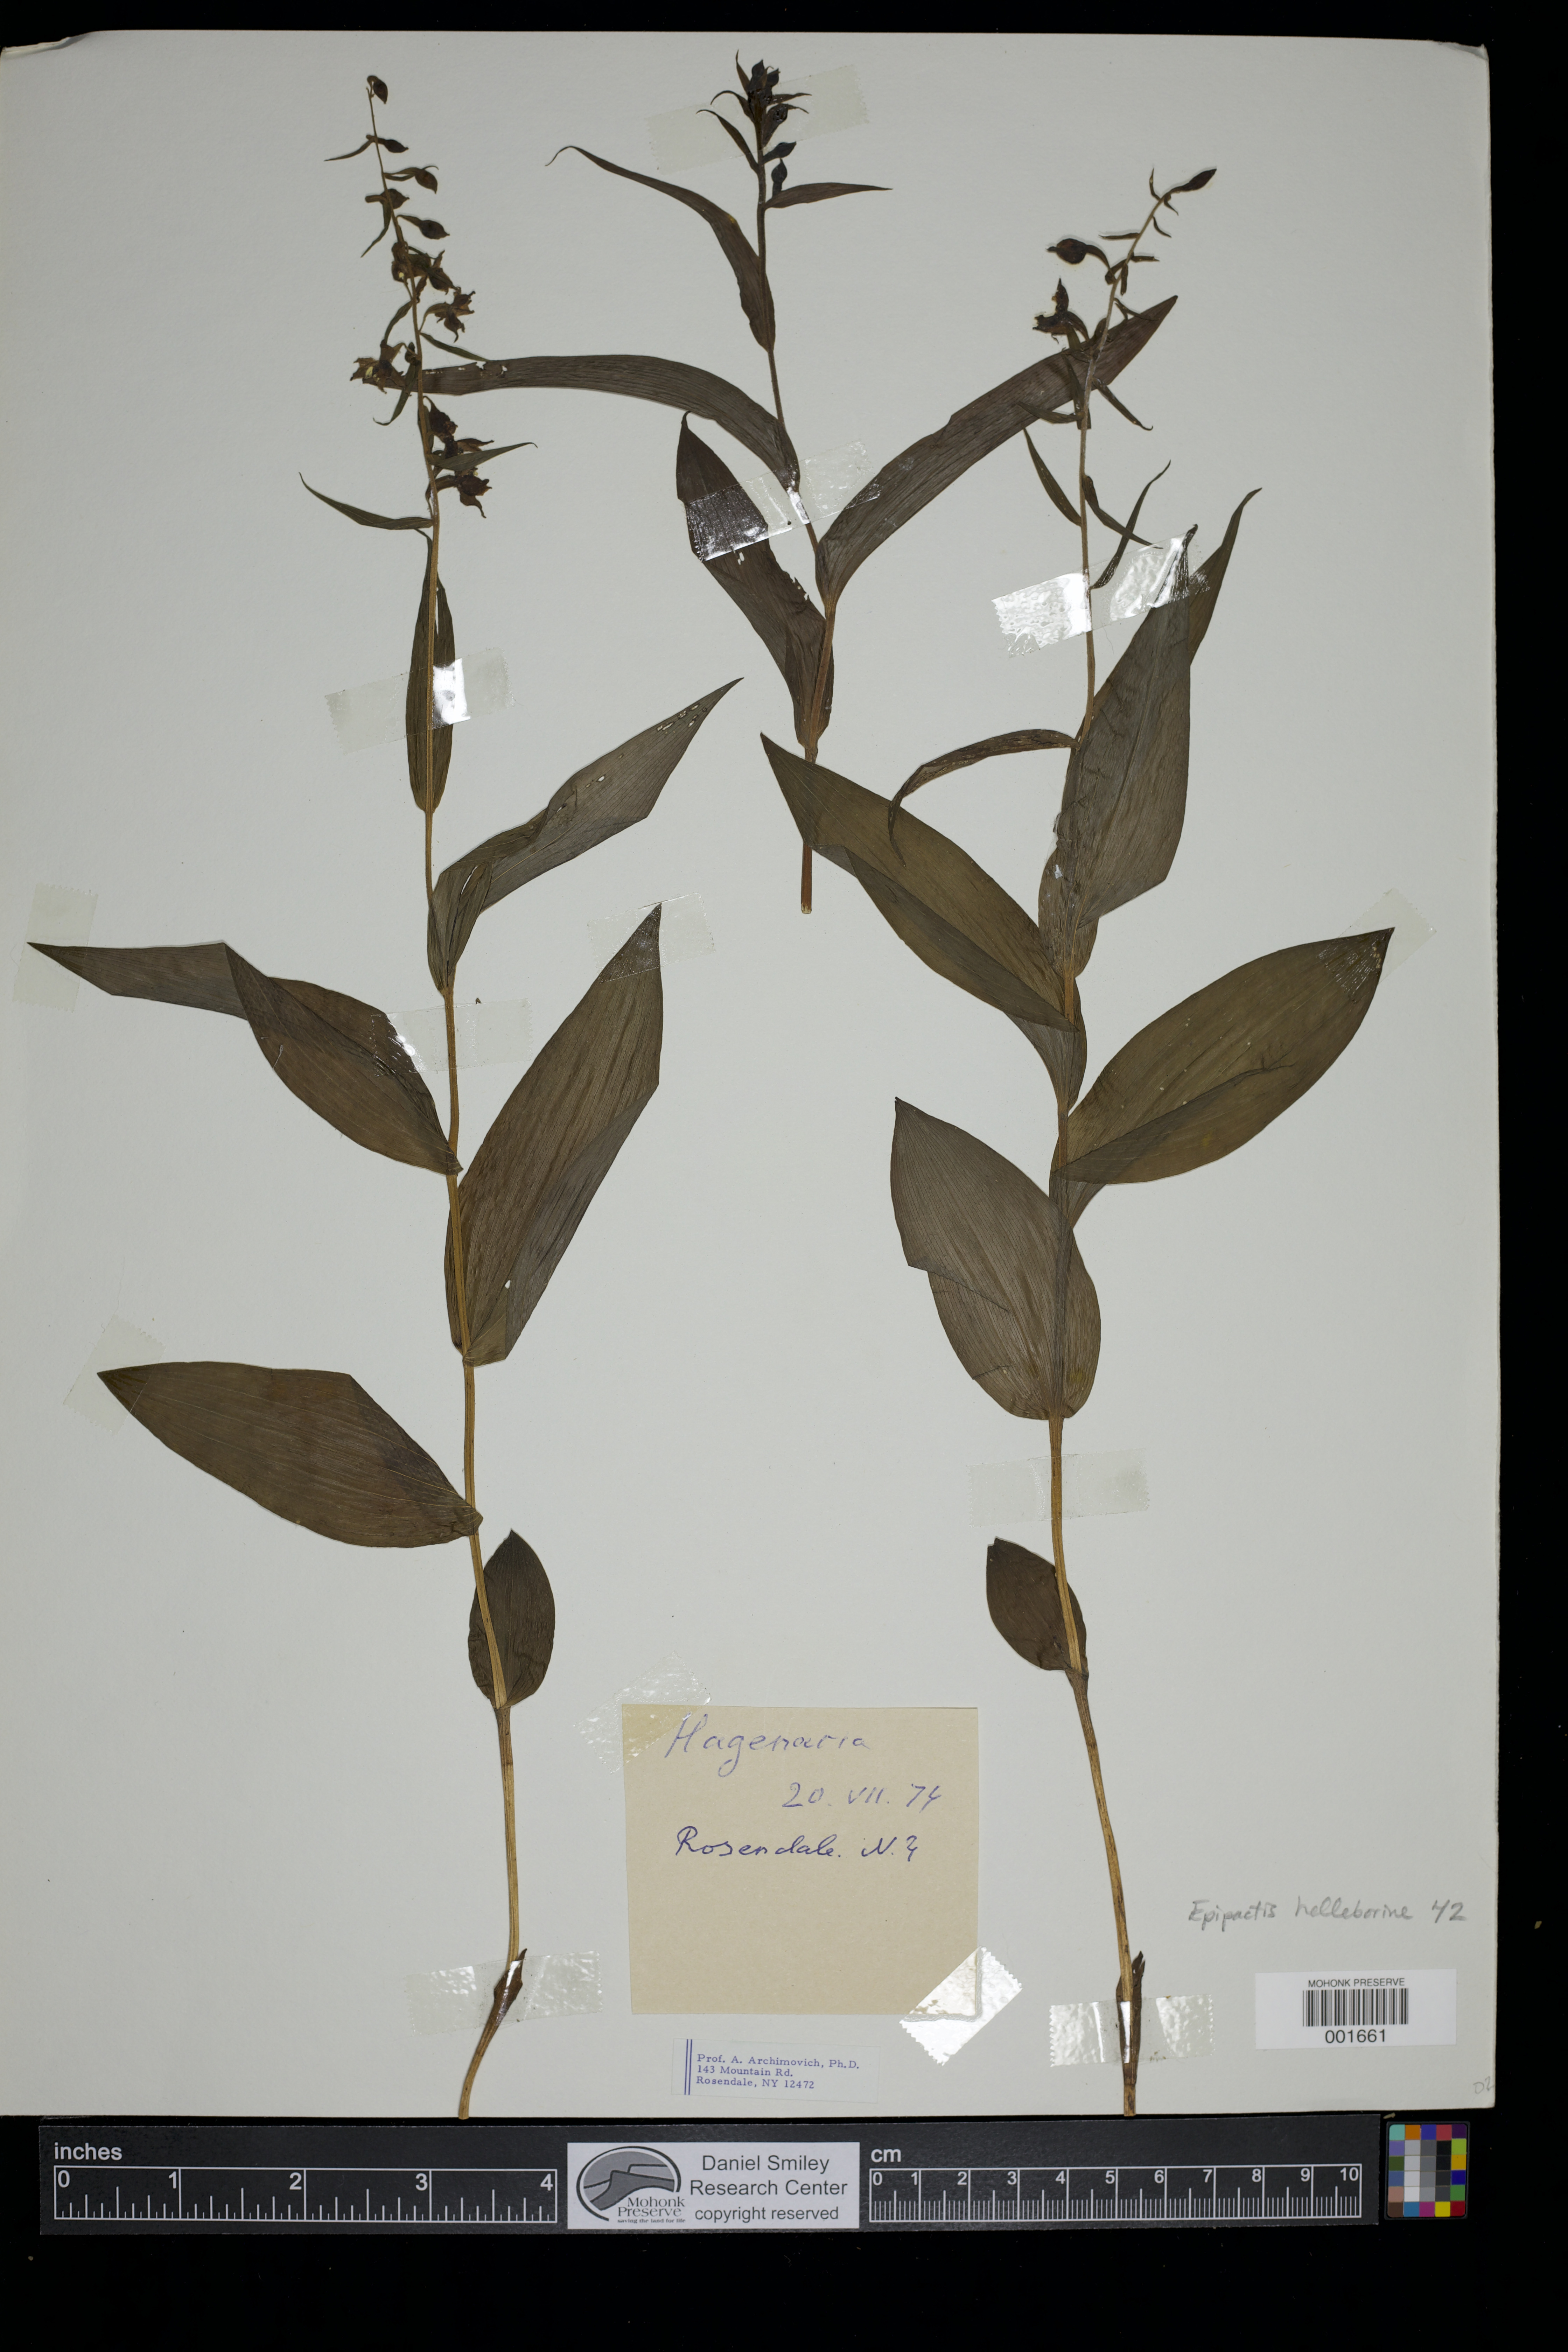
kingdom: Plantae
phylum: Tracheophyta
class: Liliopsida
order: Asparagales
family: Orchidaceae
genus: Epipactis
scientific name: Epipactis helleborine
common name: Broad-leaved helleborine
